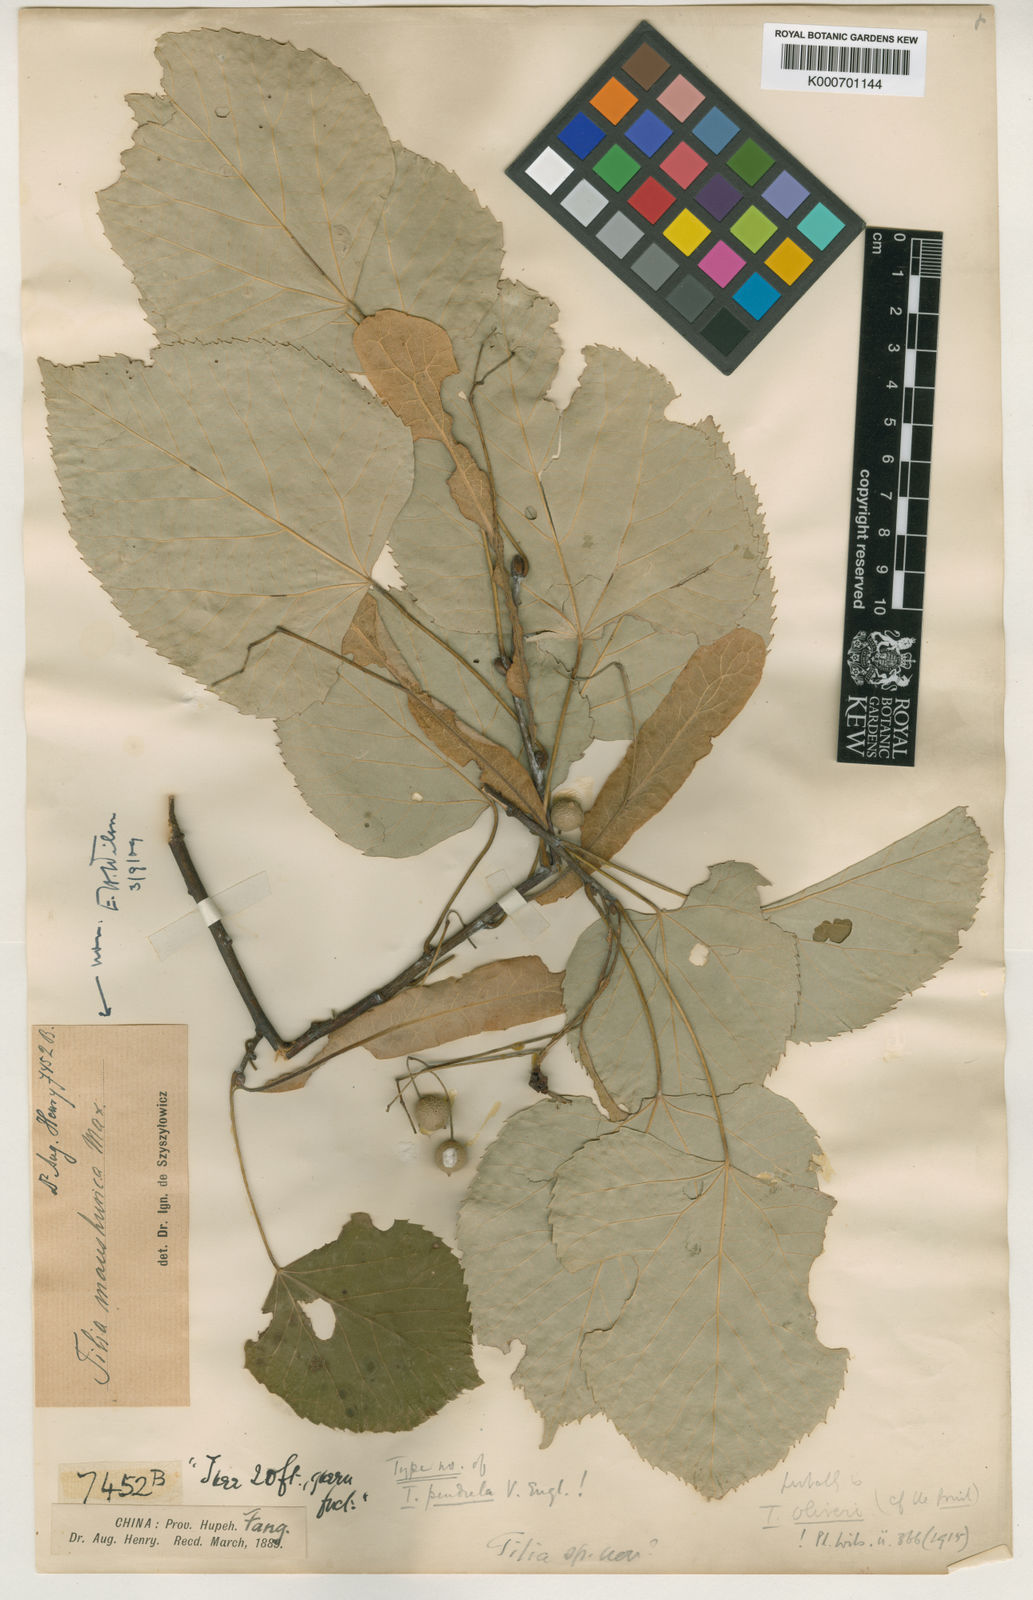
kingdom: Plantae
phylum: Tracheophyta
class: Magnoliopsida
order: Malvales
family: Malvaceae
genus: Tilia
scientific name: Tilia oliveri
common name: Oliver's lime
